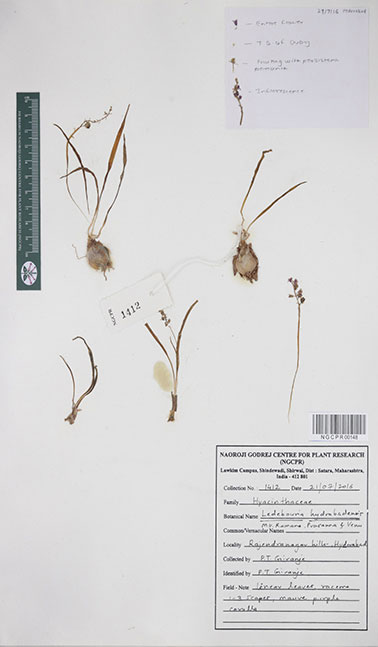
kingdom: Plantae
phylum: Tracheophyta
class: Liliopsida
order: Asparagales
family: Asparagaceae
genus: Ledebouria
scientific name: Ledebouria hyderabadensis
